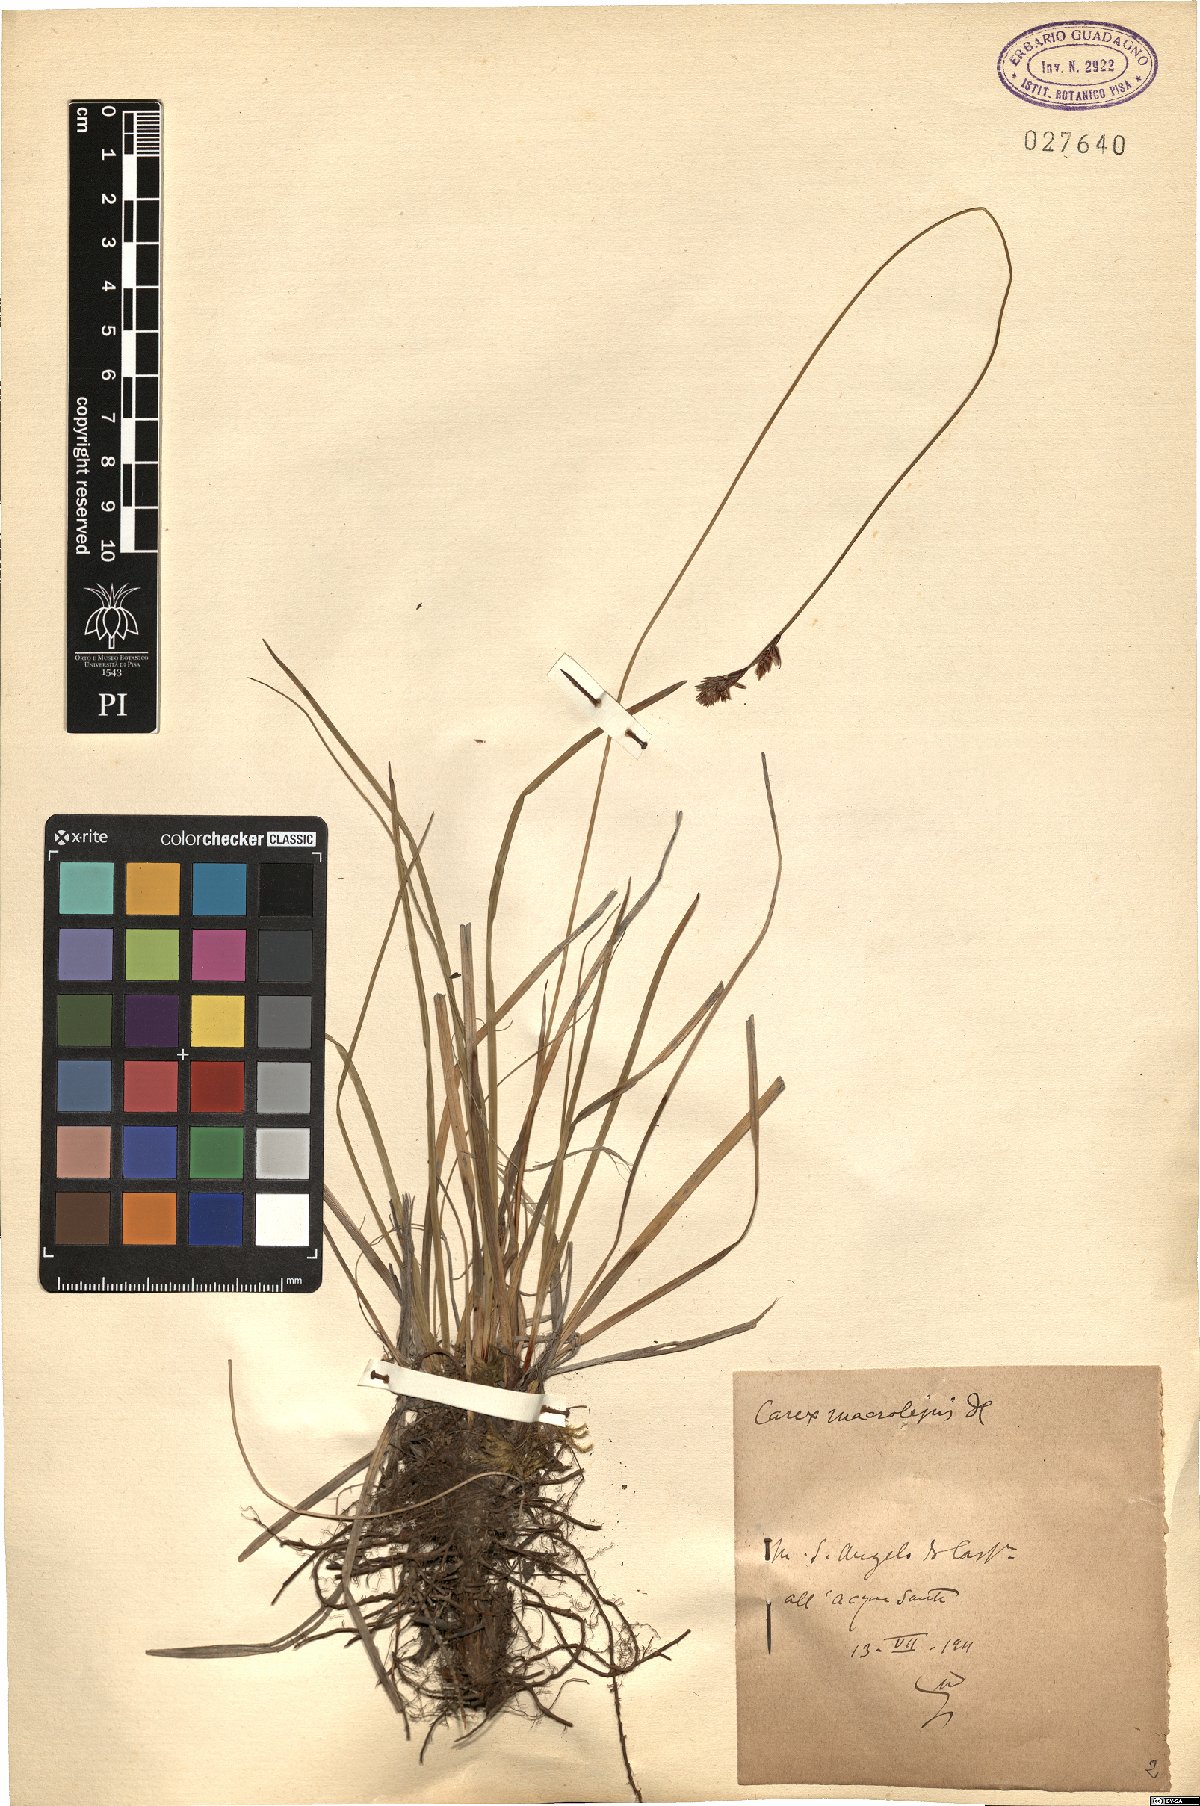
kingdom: Plantae
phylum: Tracheophyta
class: Liliopsida
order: Poales
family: Cyperaceae
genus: Carex
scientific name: Carex macrolepis
